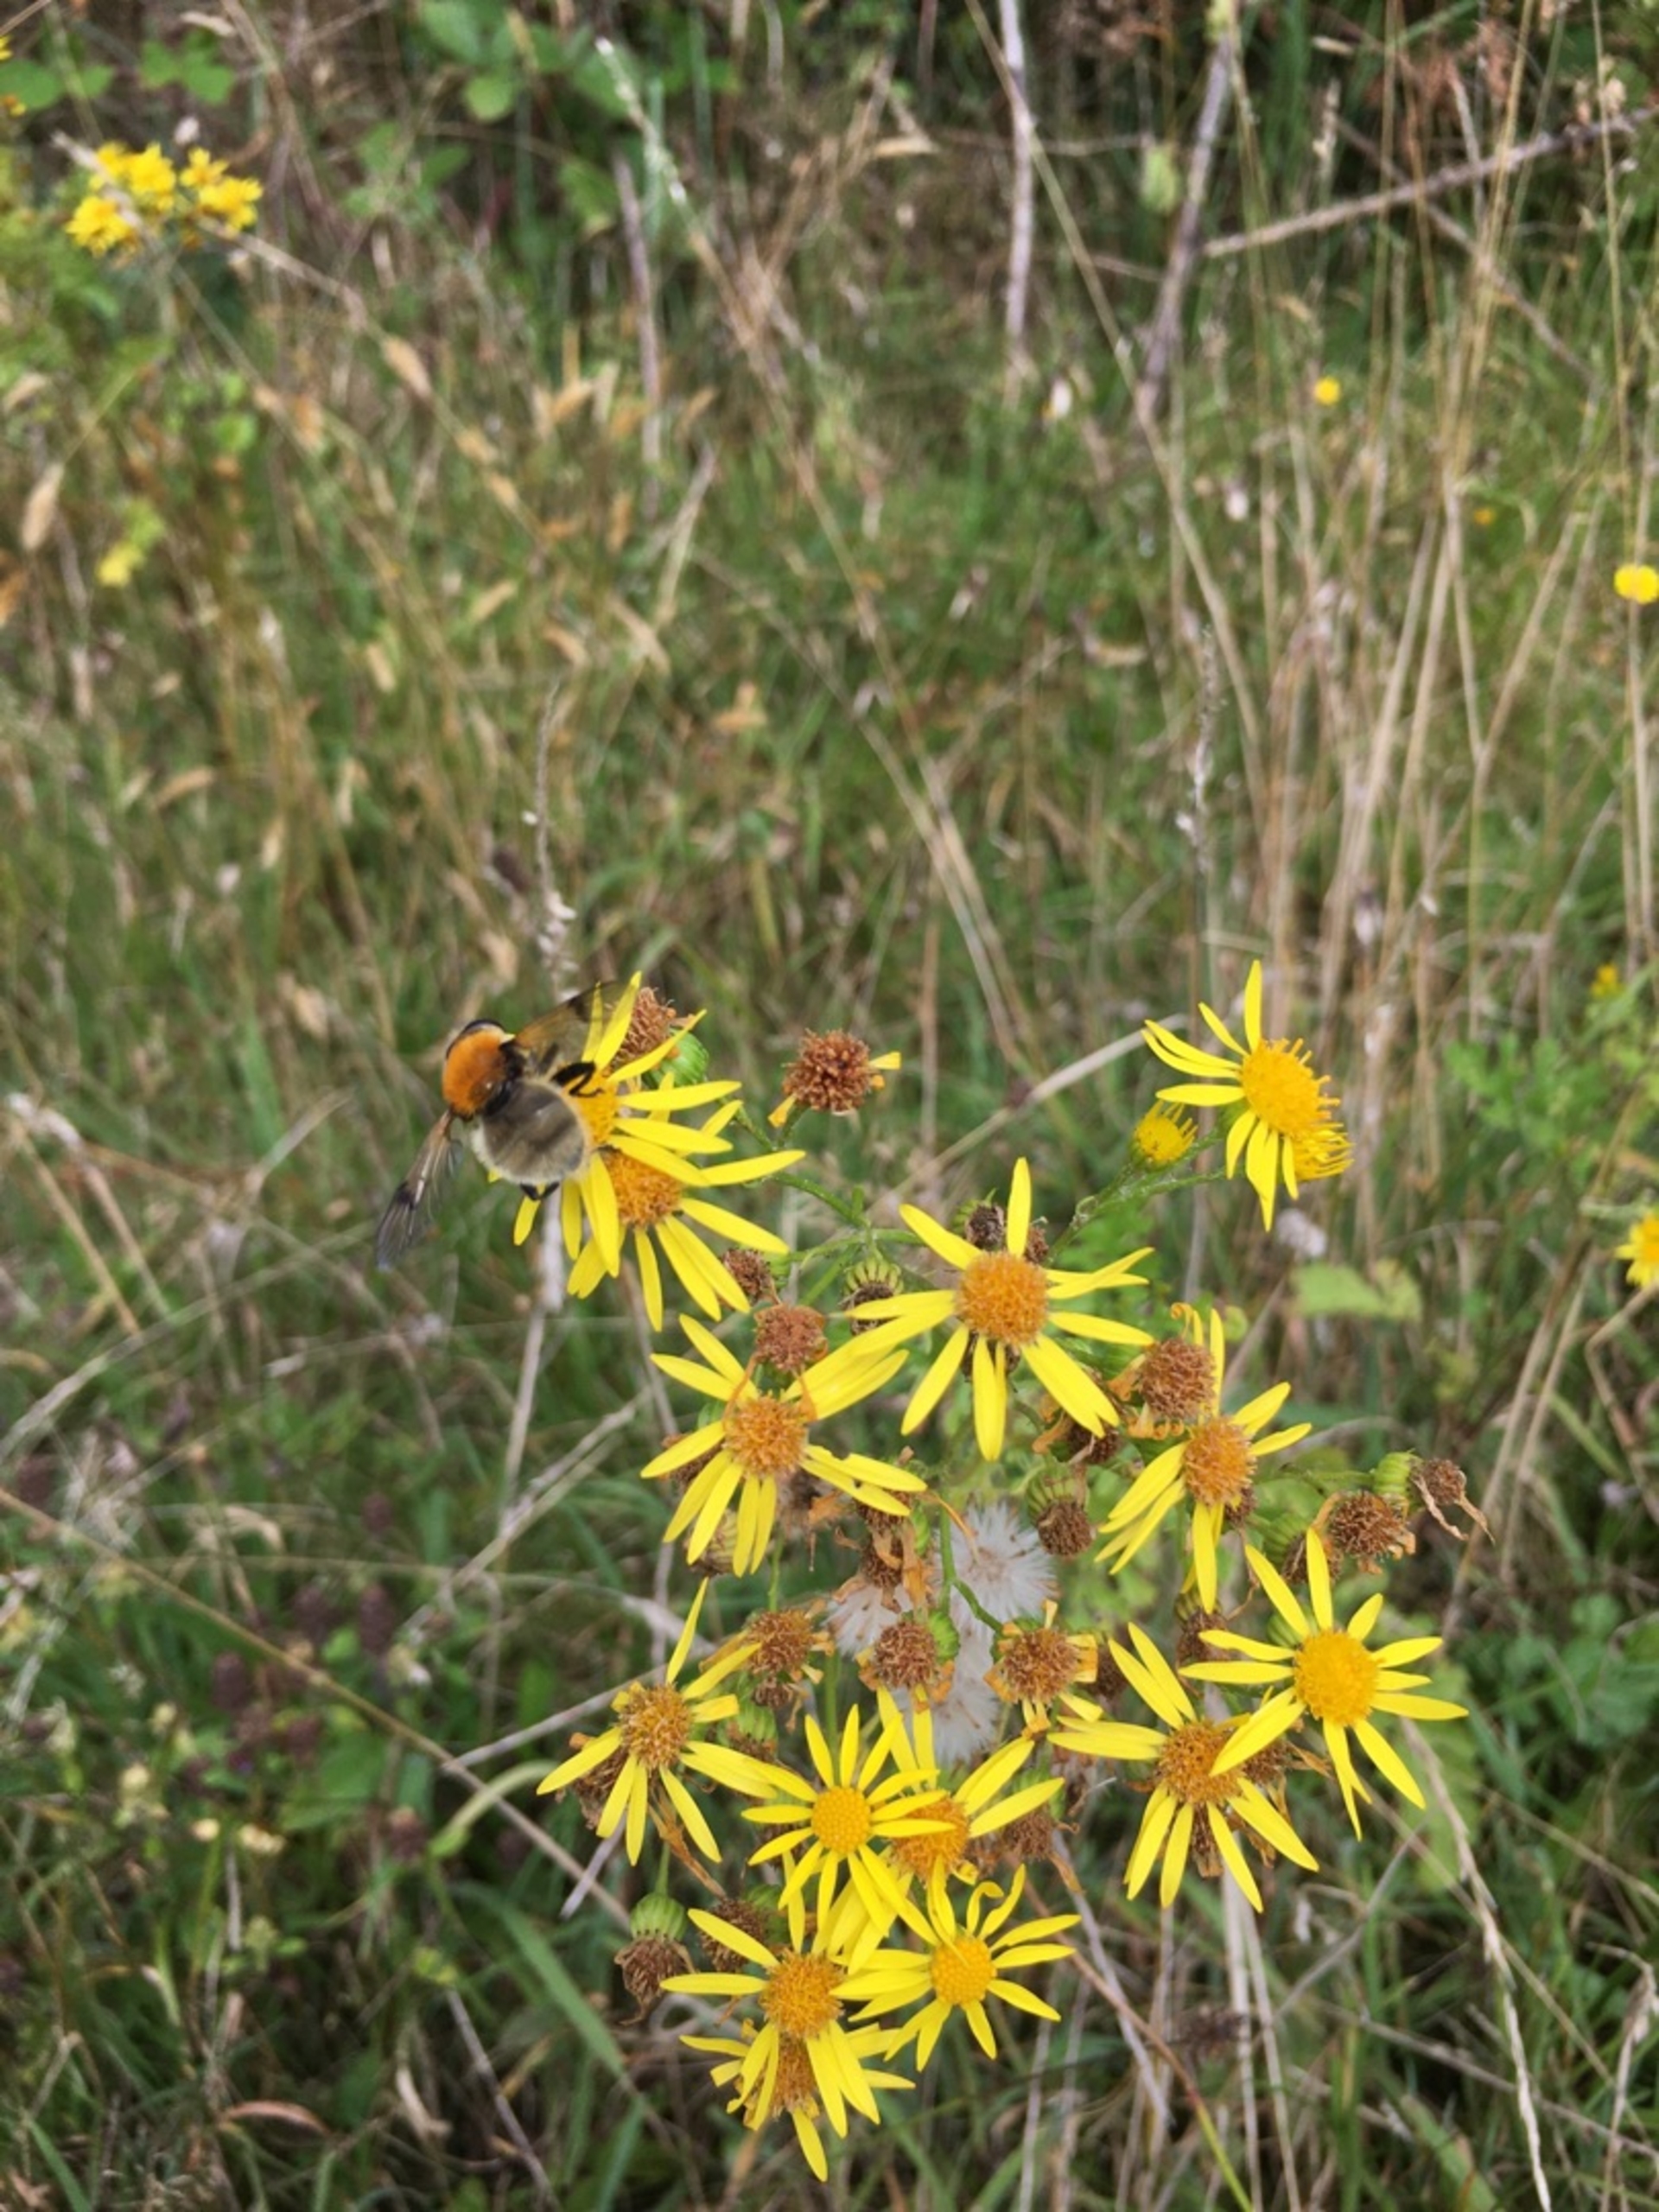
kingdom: Animalia
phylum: Arthropoda
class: Insecta
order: Diptera
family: Syrphidae
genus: Sericomyia
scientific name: Sericomyia superbiens
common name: Brun bjørnesvirreflue
